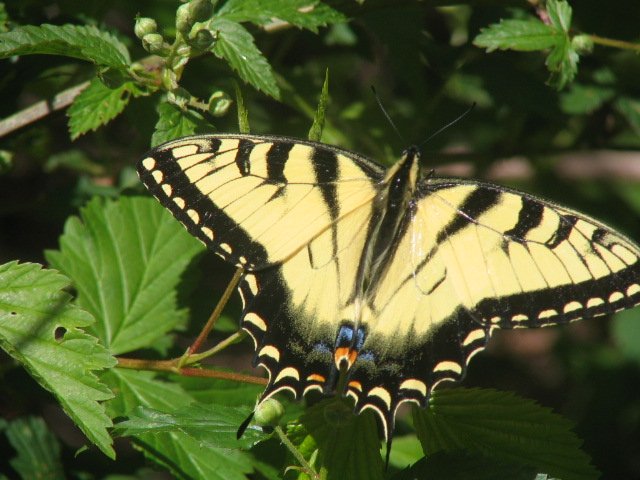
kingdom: Animalia
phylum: Arthropoda
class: Insecta
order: Lepidoptera
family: Papilionidae
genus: Pterourus
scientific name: Pterourus glaucus
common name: Eastern Tiger Swallowtail
